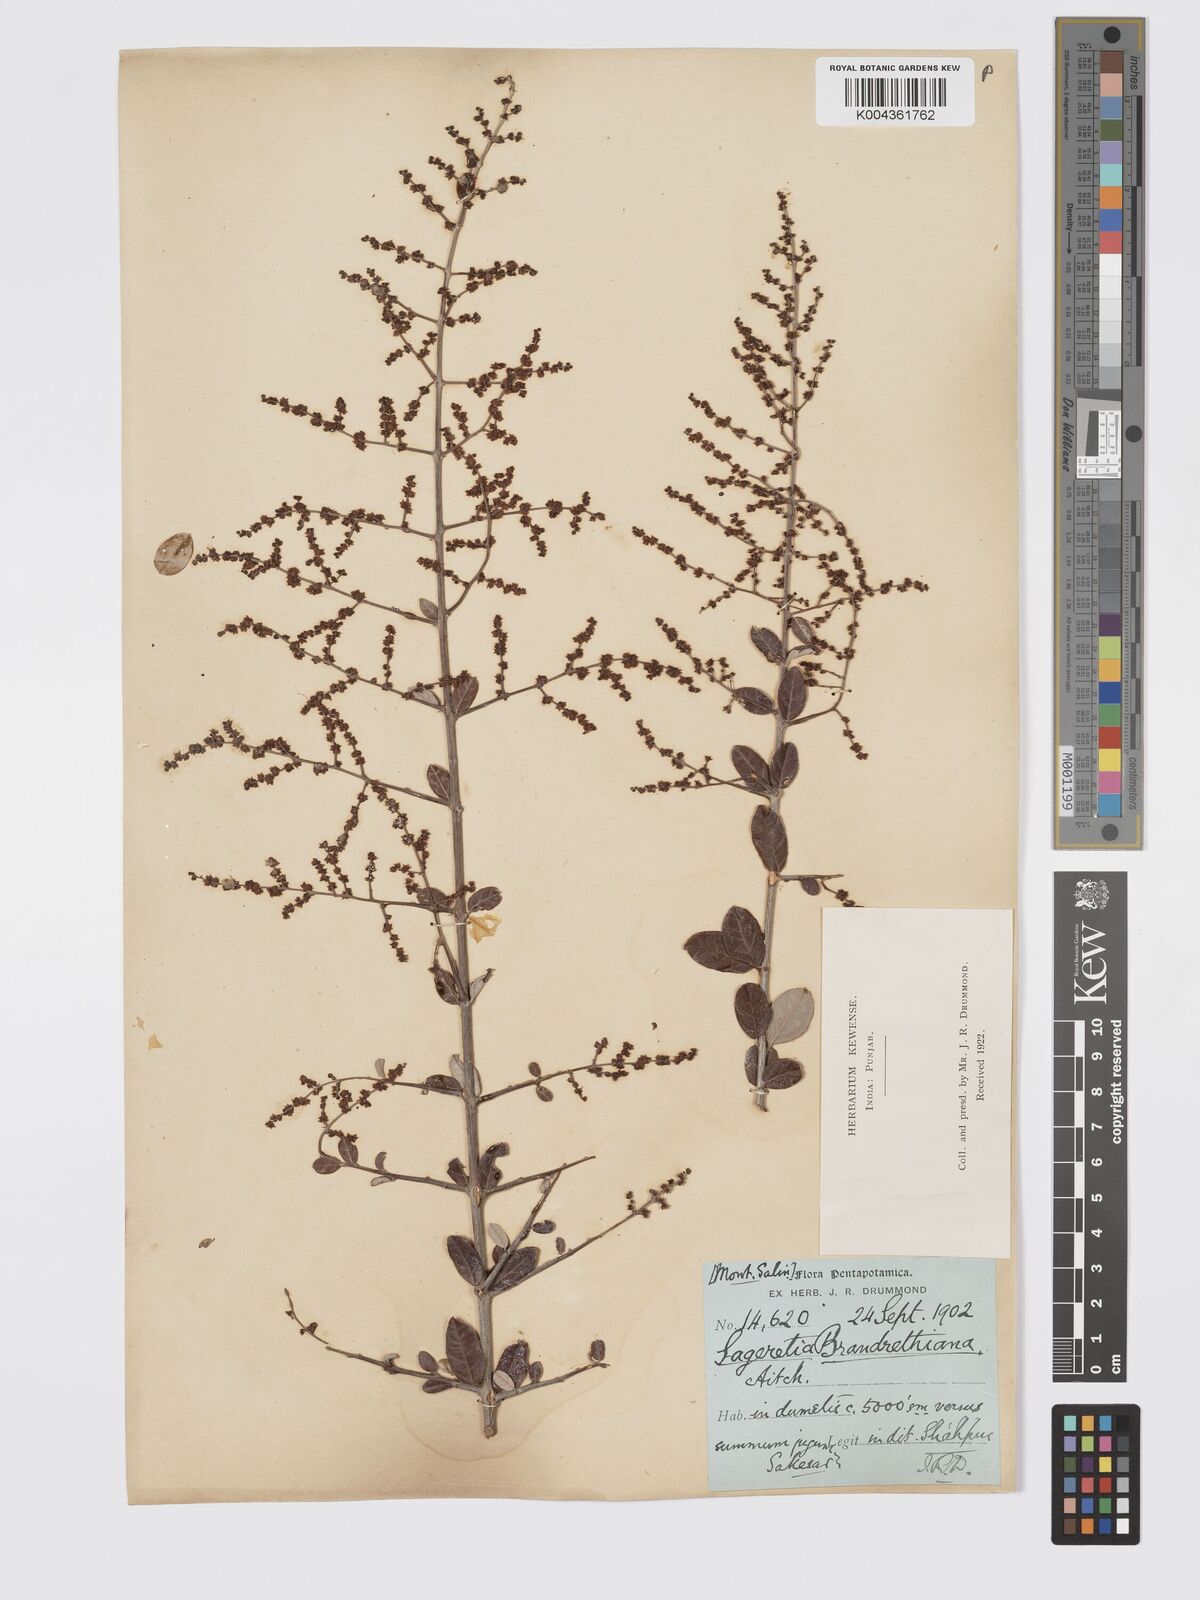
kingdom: Plantae
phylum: Tracheophyta
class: Magnoliopsida
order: Rosales
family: Rhamnaceae
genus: Sageretia
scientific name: Sageretia brandrethiana
